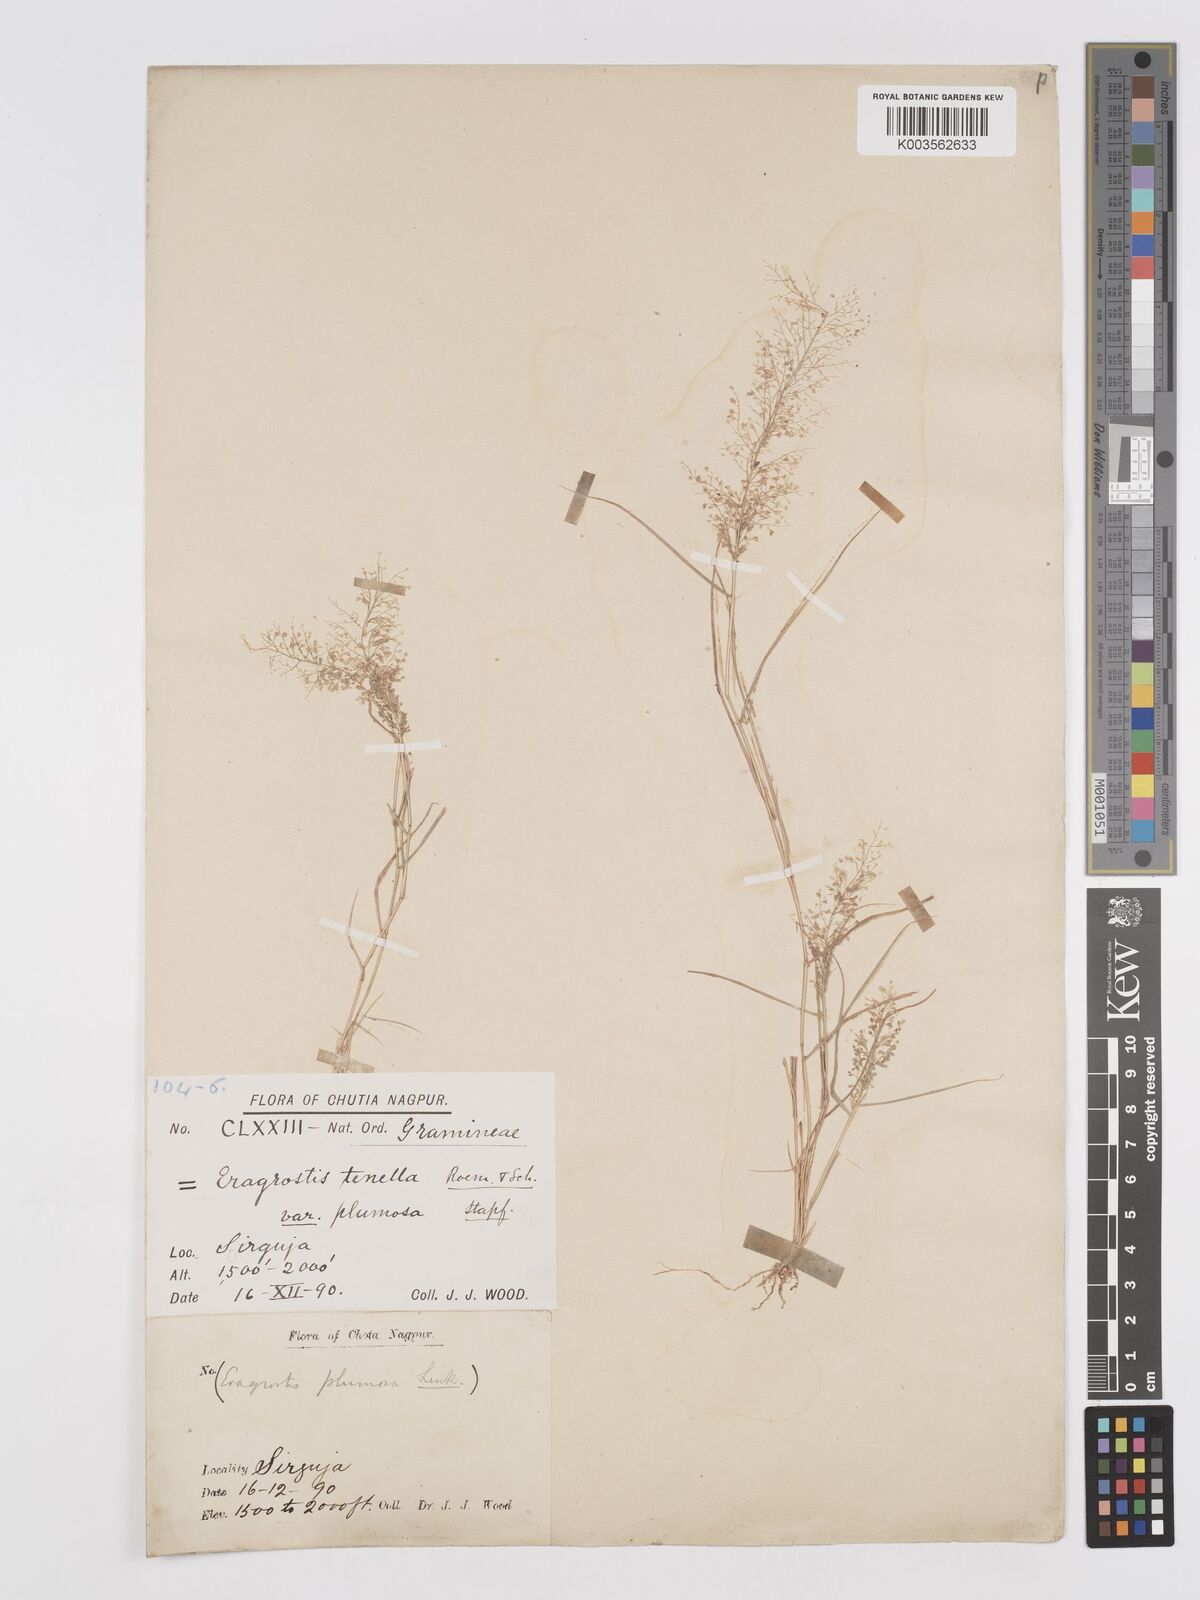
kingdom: Plantae
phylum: Tracheophyta
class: Liliopsida
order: Poales
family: Poaceae
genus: Eragrostis
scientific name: Eragrostis tenella
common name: Japanese lovegrass
